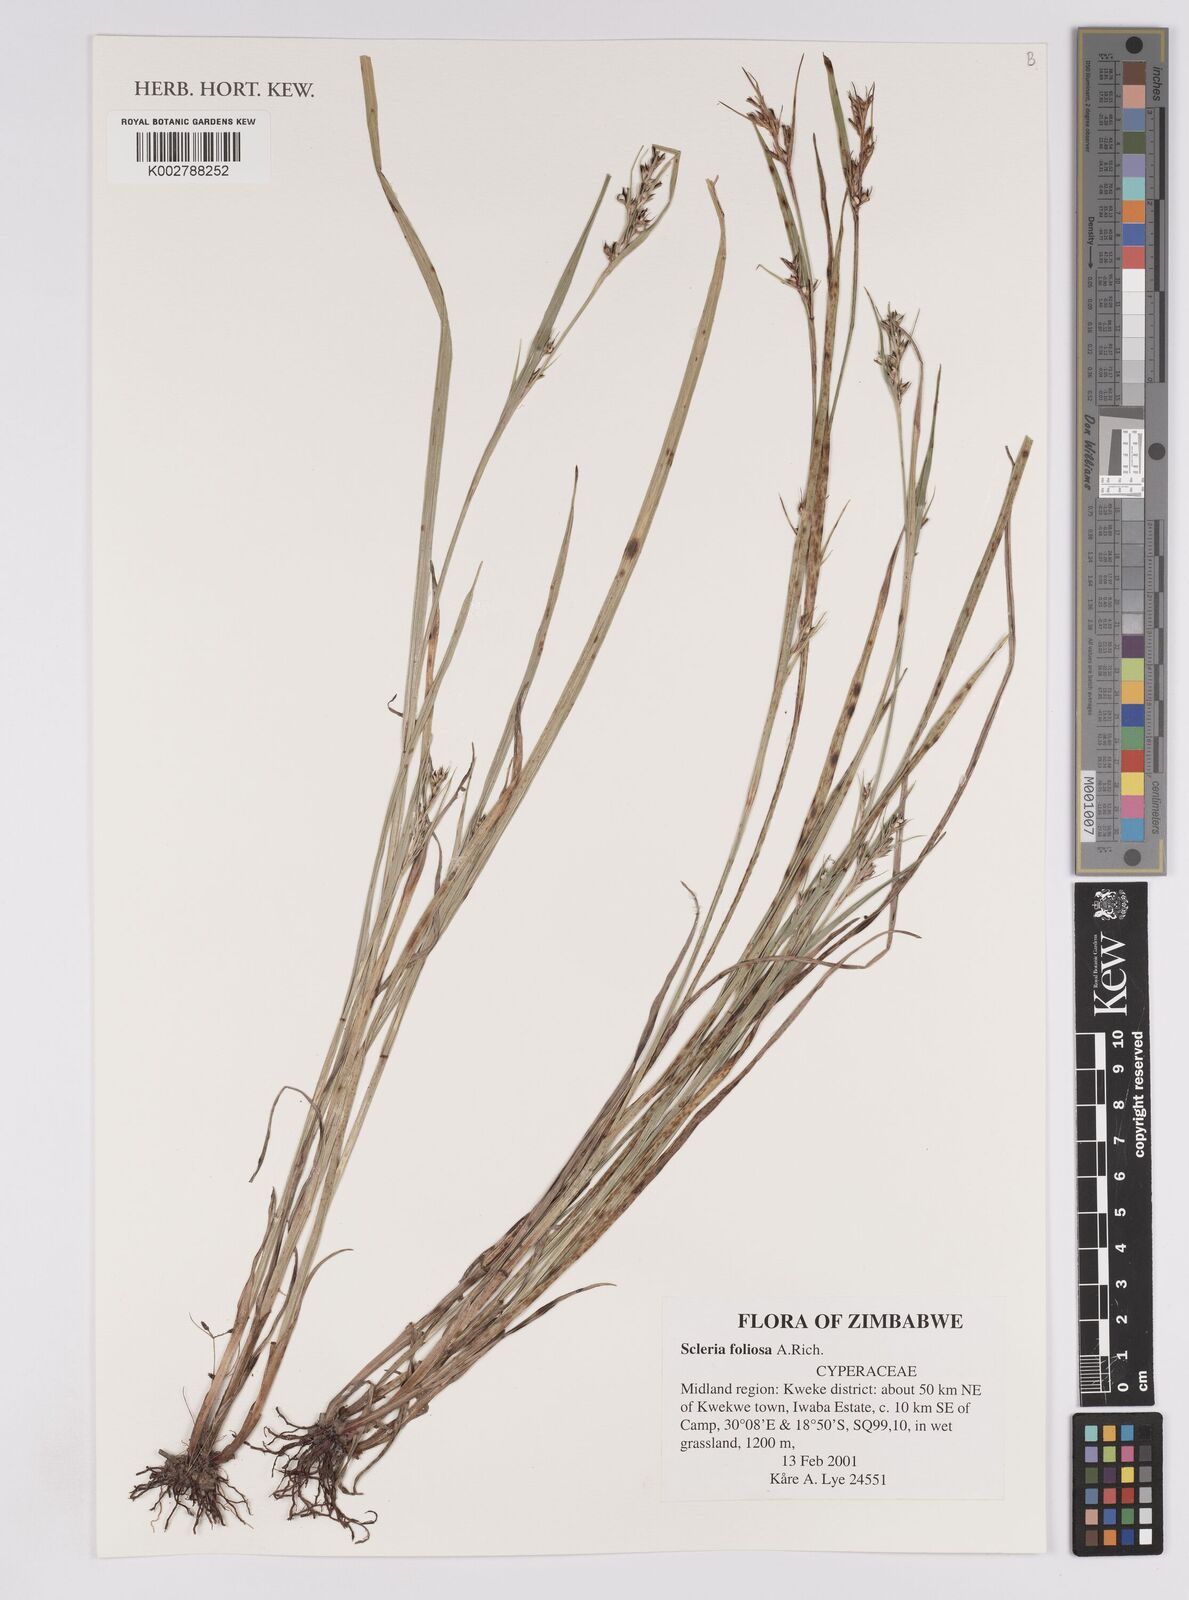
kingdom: Plantae
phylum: Tracheophyta
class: Liliopsida
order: Poales
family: Cyperaceae
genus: Scleria
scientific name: Scleria foliosa
